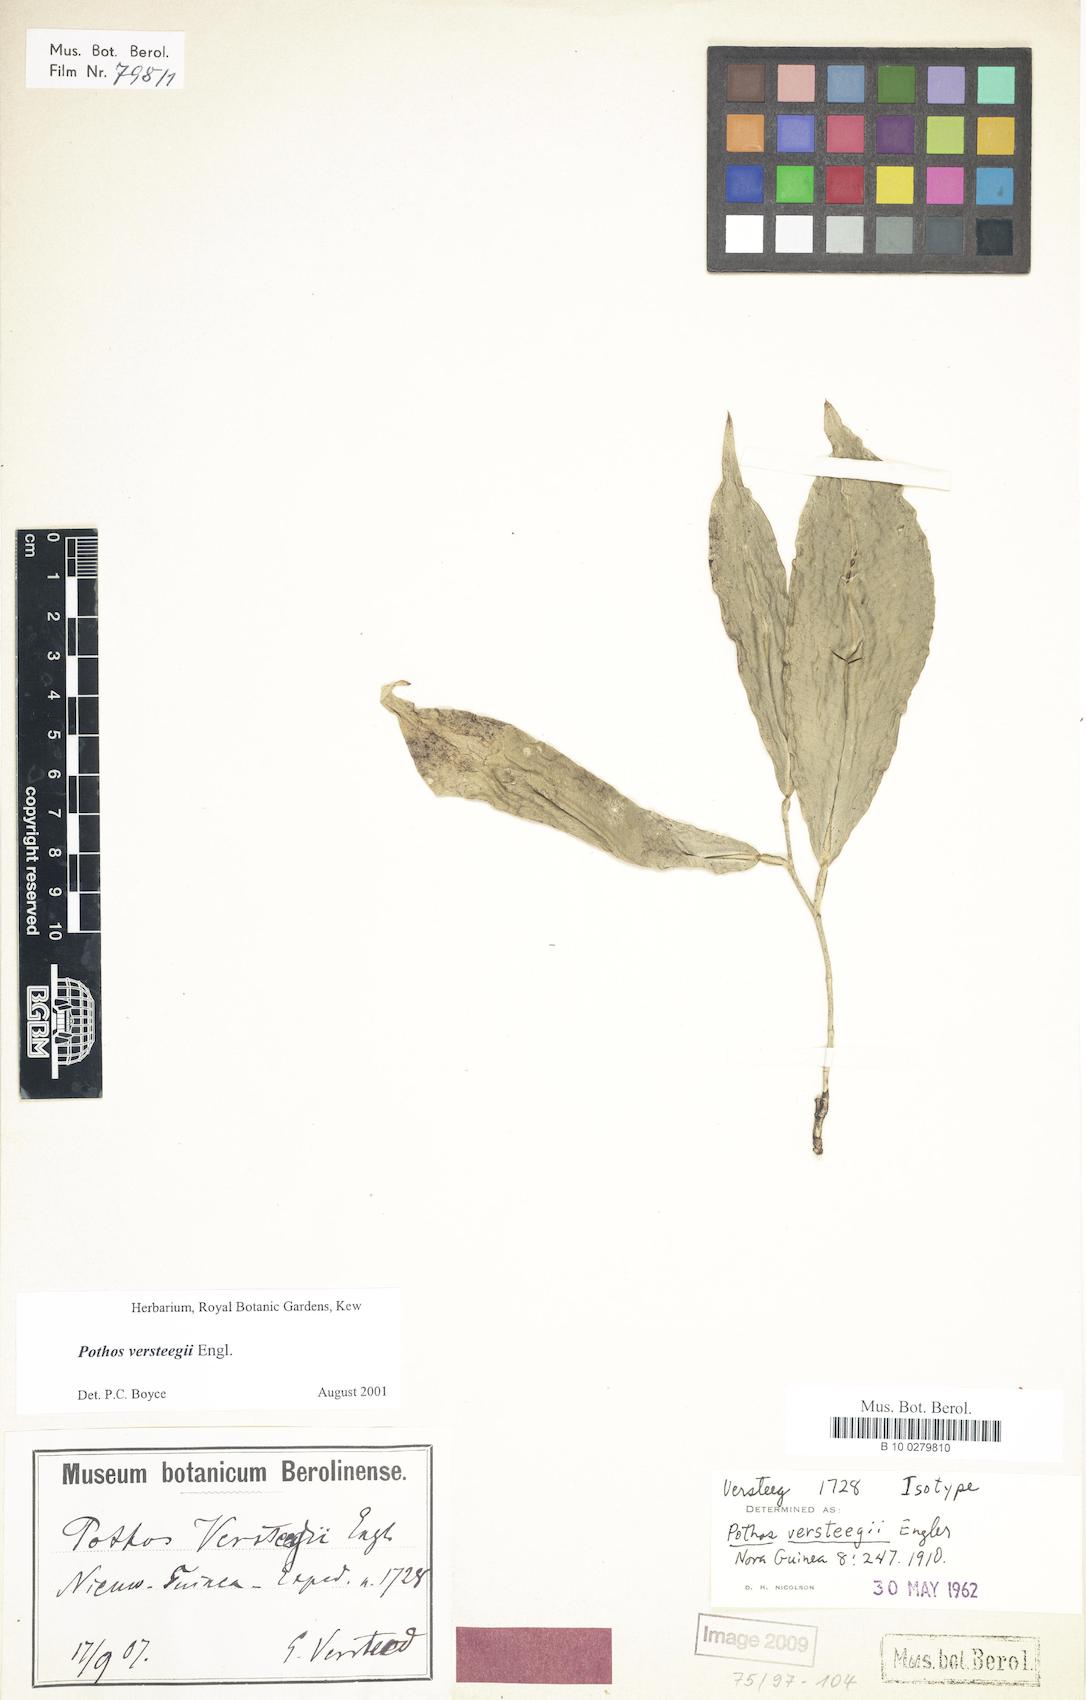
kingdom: Plantae
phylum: Tracheophyta
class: Liliopsida
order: Alismatales
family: Araceae
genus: Pothos
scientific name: Pothos versteegii
